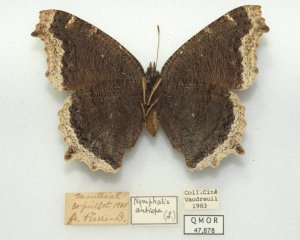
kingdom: Animalia
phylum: Arthropoda
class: Insecta
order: Lepidoptera
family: Nymphalidae
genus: Nymphalis
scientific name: Nymphalis antiopa
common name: Mourning Cloak
